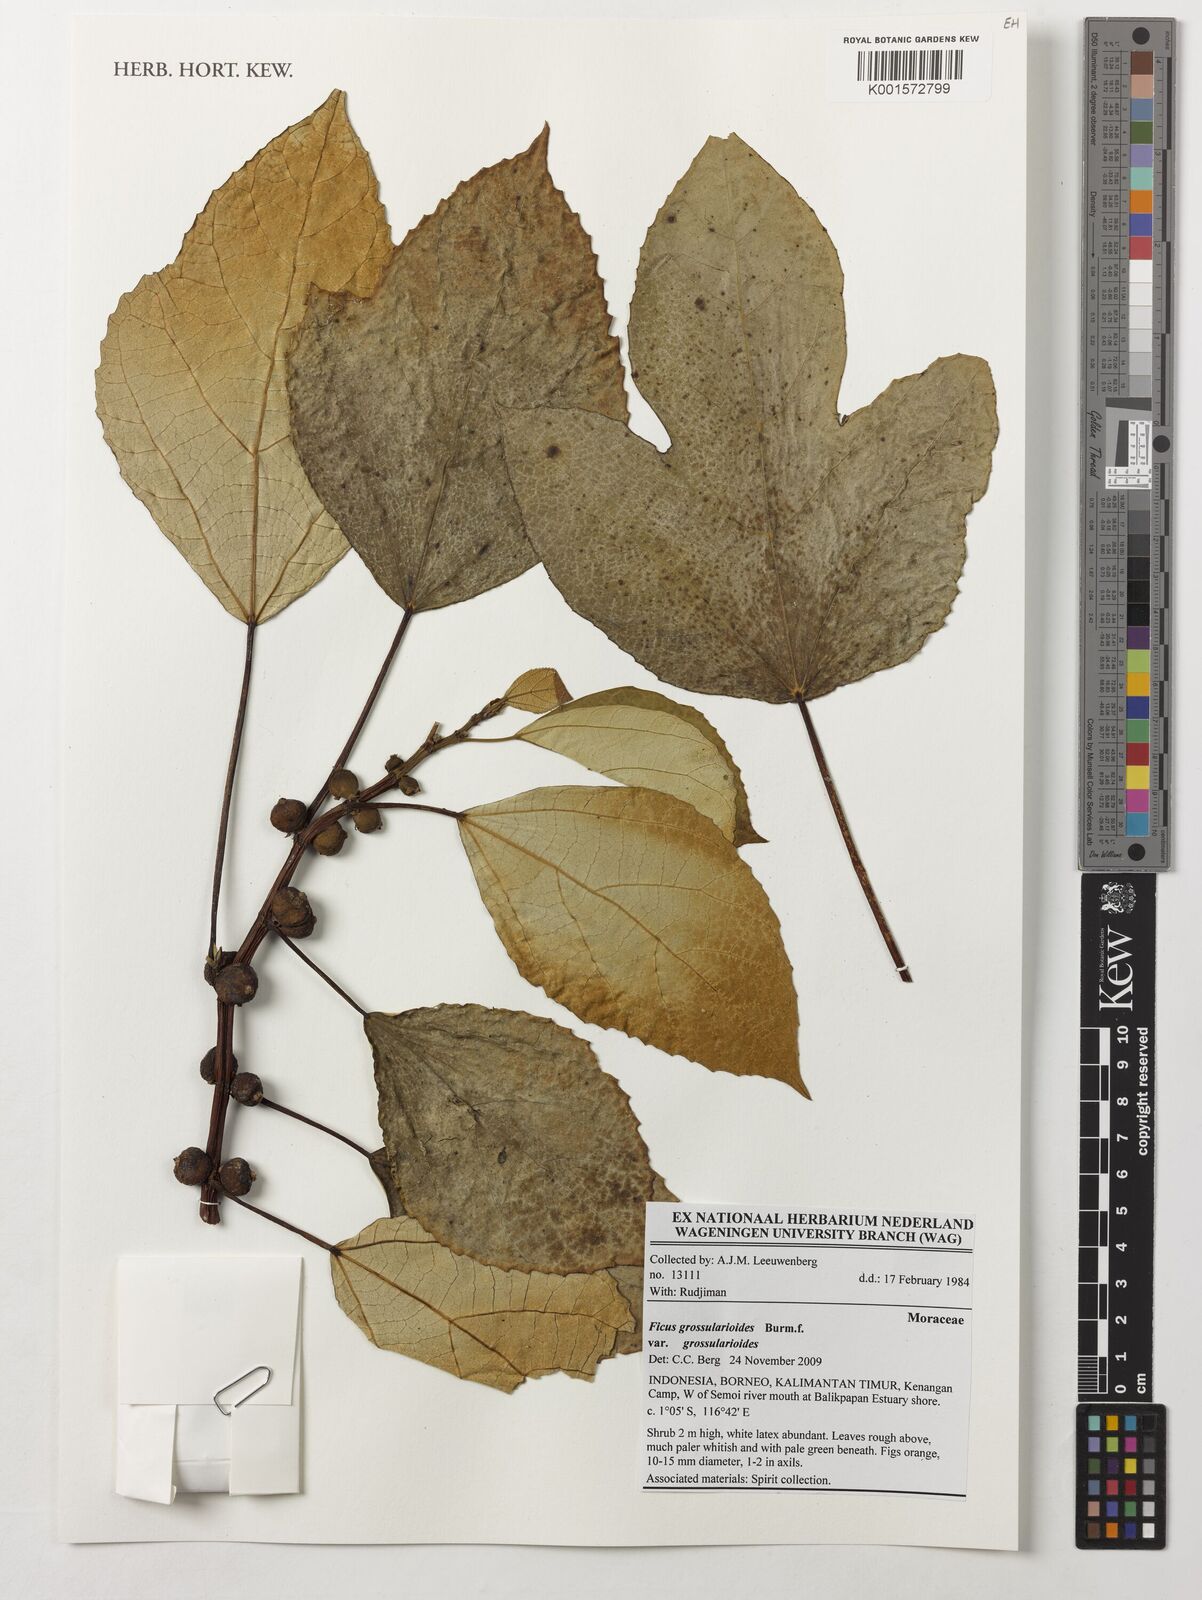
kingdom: Plantae
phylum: Tracheophyta
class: Magnoliopsida
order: Rosales
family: Moraceae
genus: Ficus
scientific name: Ficus grossularioides
